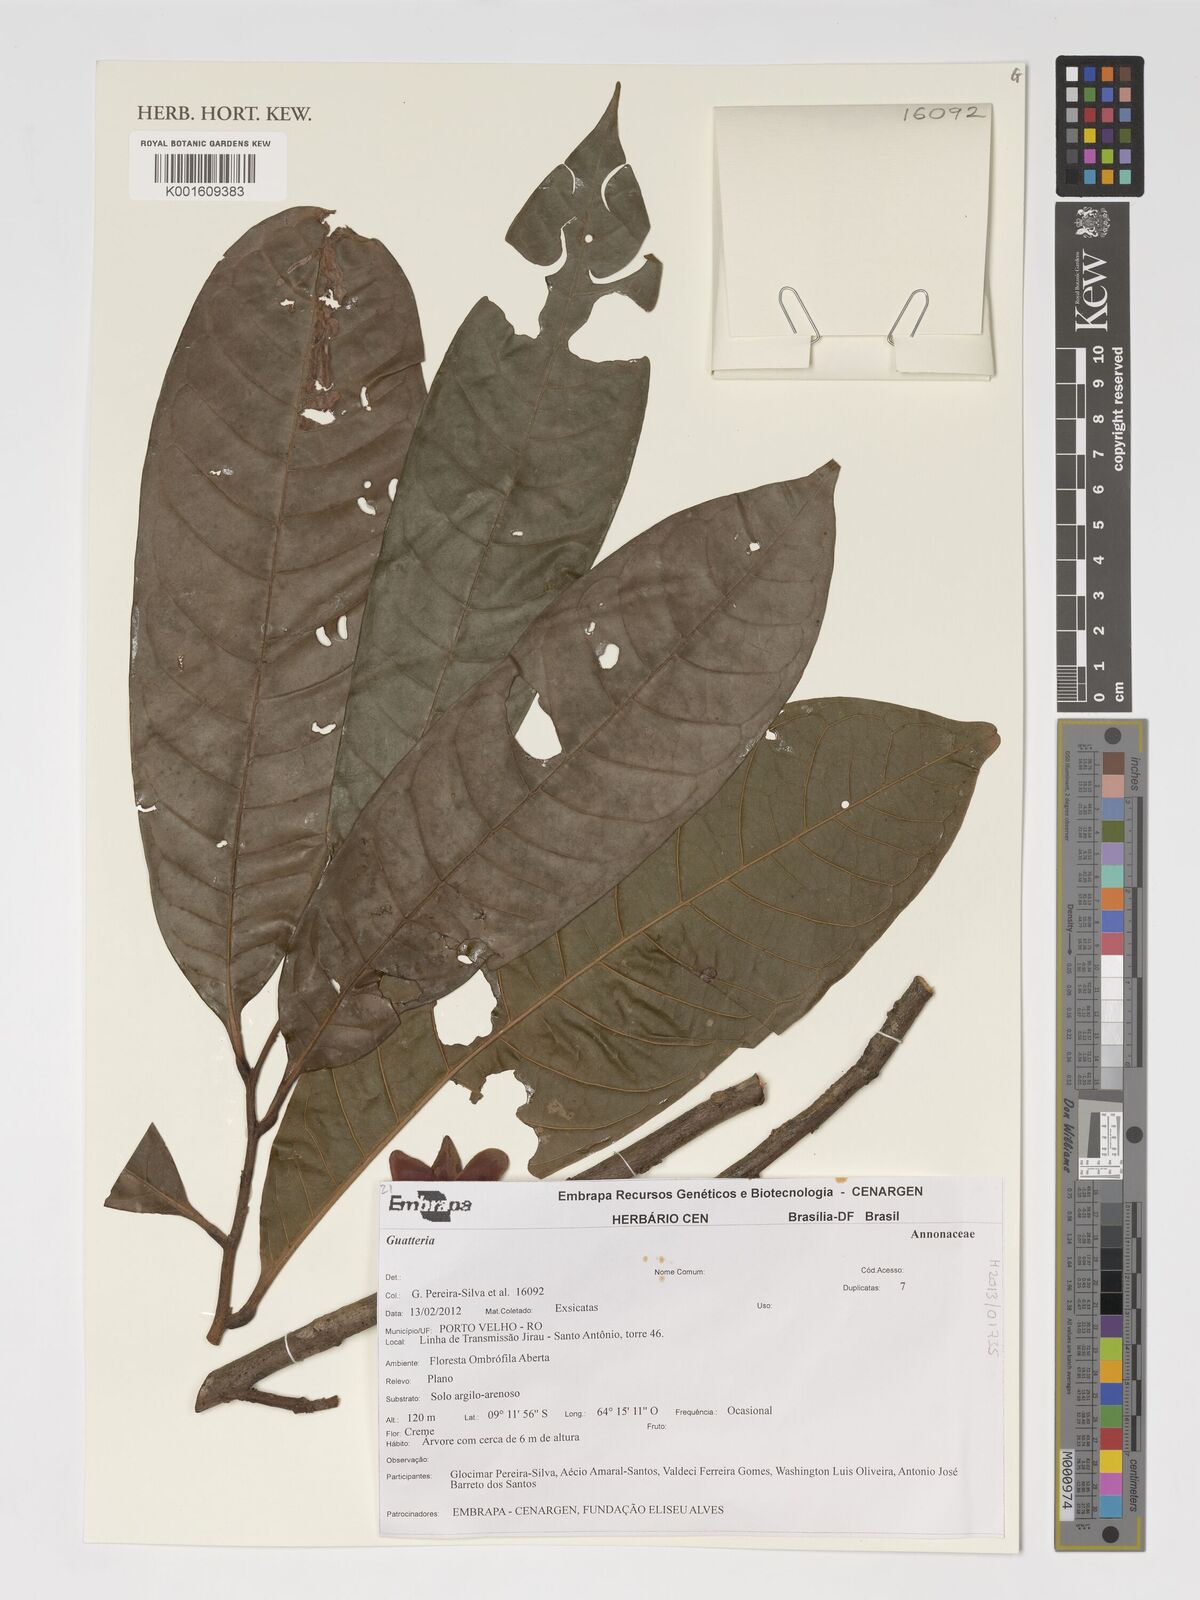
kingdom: Plantae
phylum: Tracheophyta
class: Magnoliopsida
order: Magnoliales
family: Annonaceae
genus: Guatteria
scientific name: Guatteria
